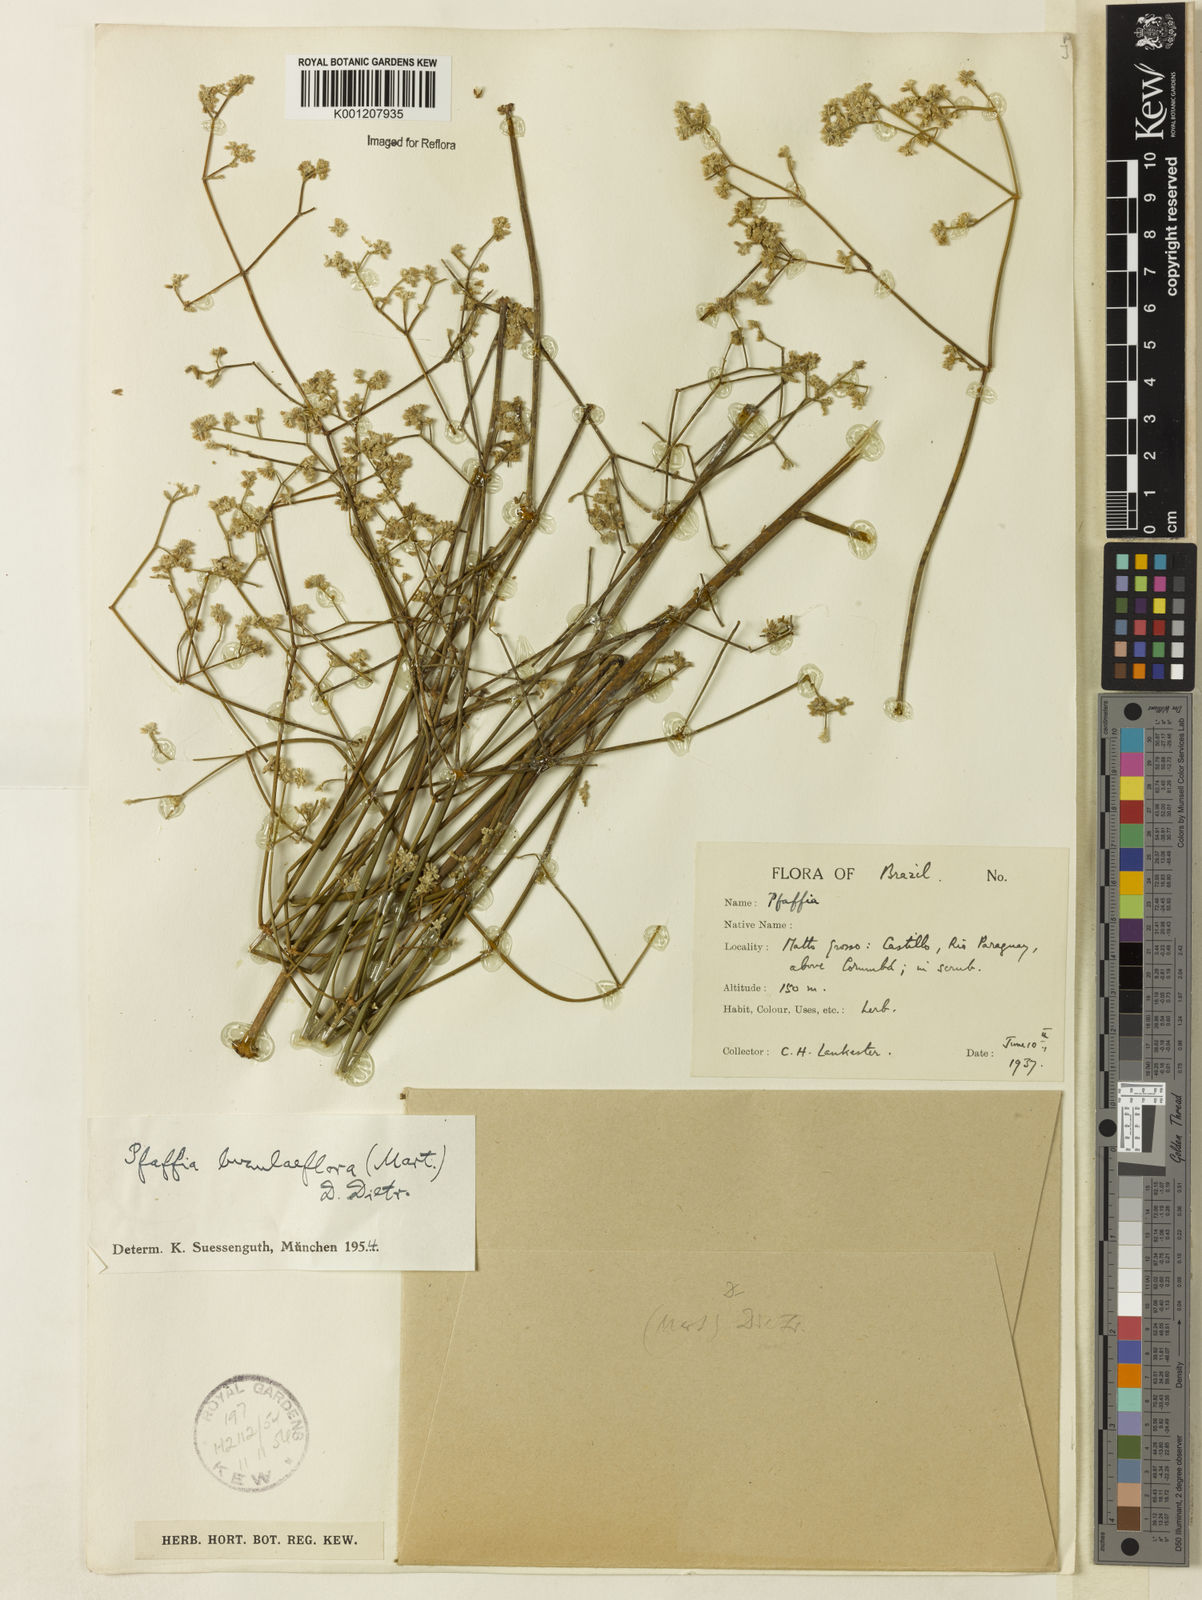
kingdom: Plantae
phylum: Tracheophyta
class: Magnoliopsida
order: Caryophyllales
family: Amaranthaceae
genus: Pfaffia
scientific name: Pfaffia glomerata
